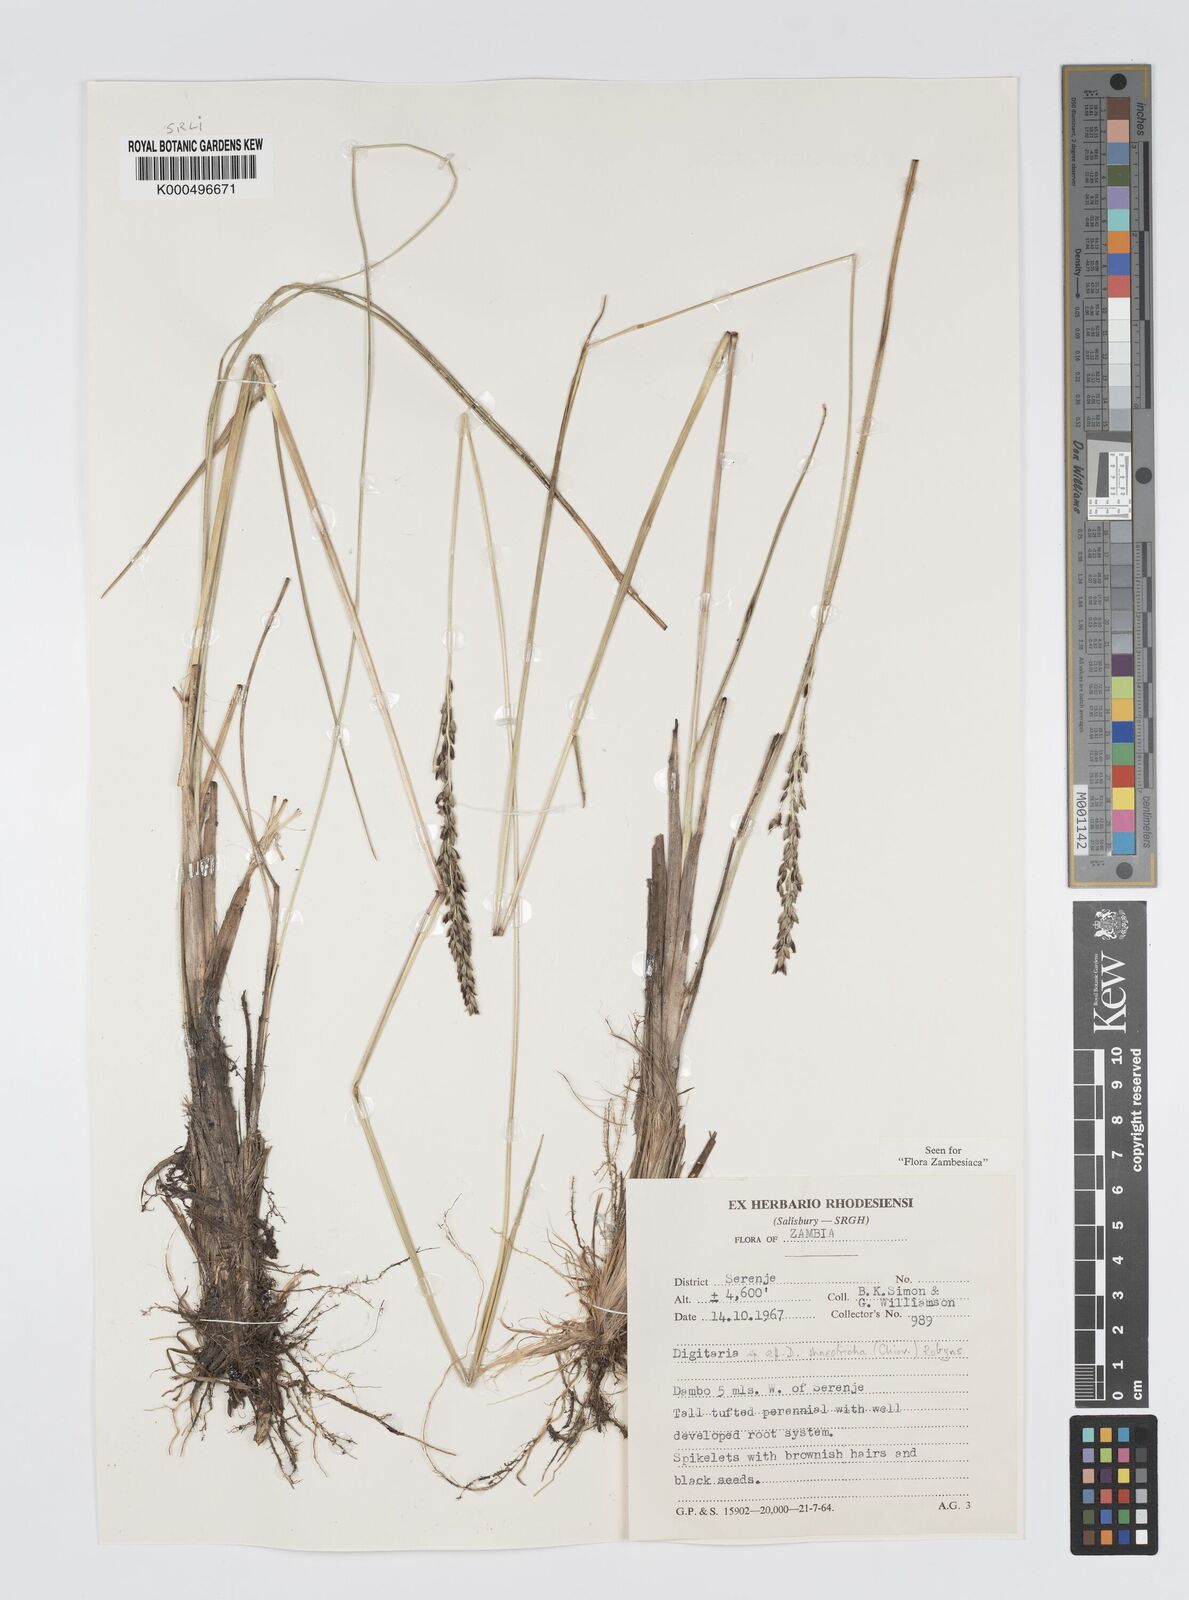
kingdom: Plantae
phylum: Tracheophyta
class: Liliopsida
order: Poales
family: Poaceae
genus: Digitaria
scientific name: Digitaria phaeotricha
